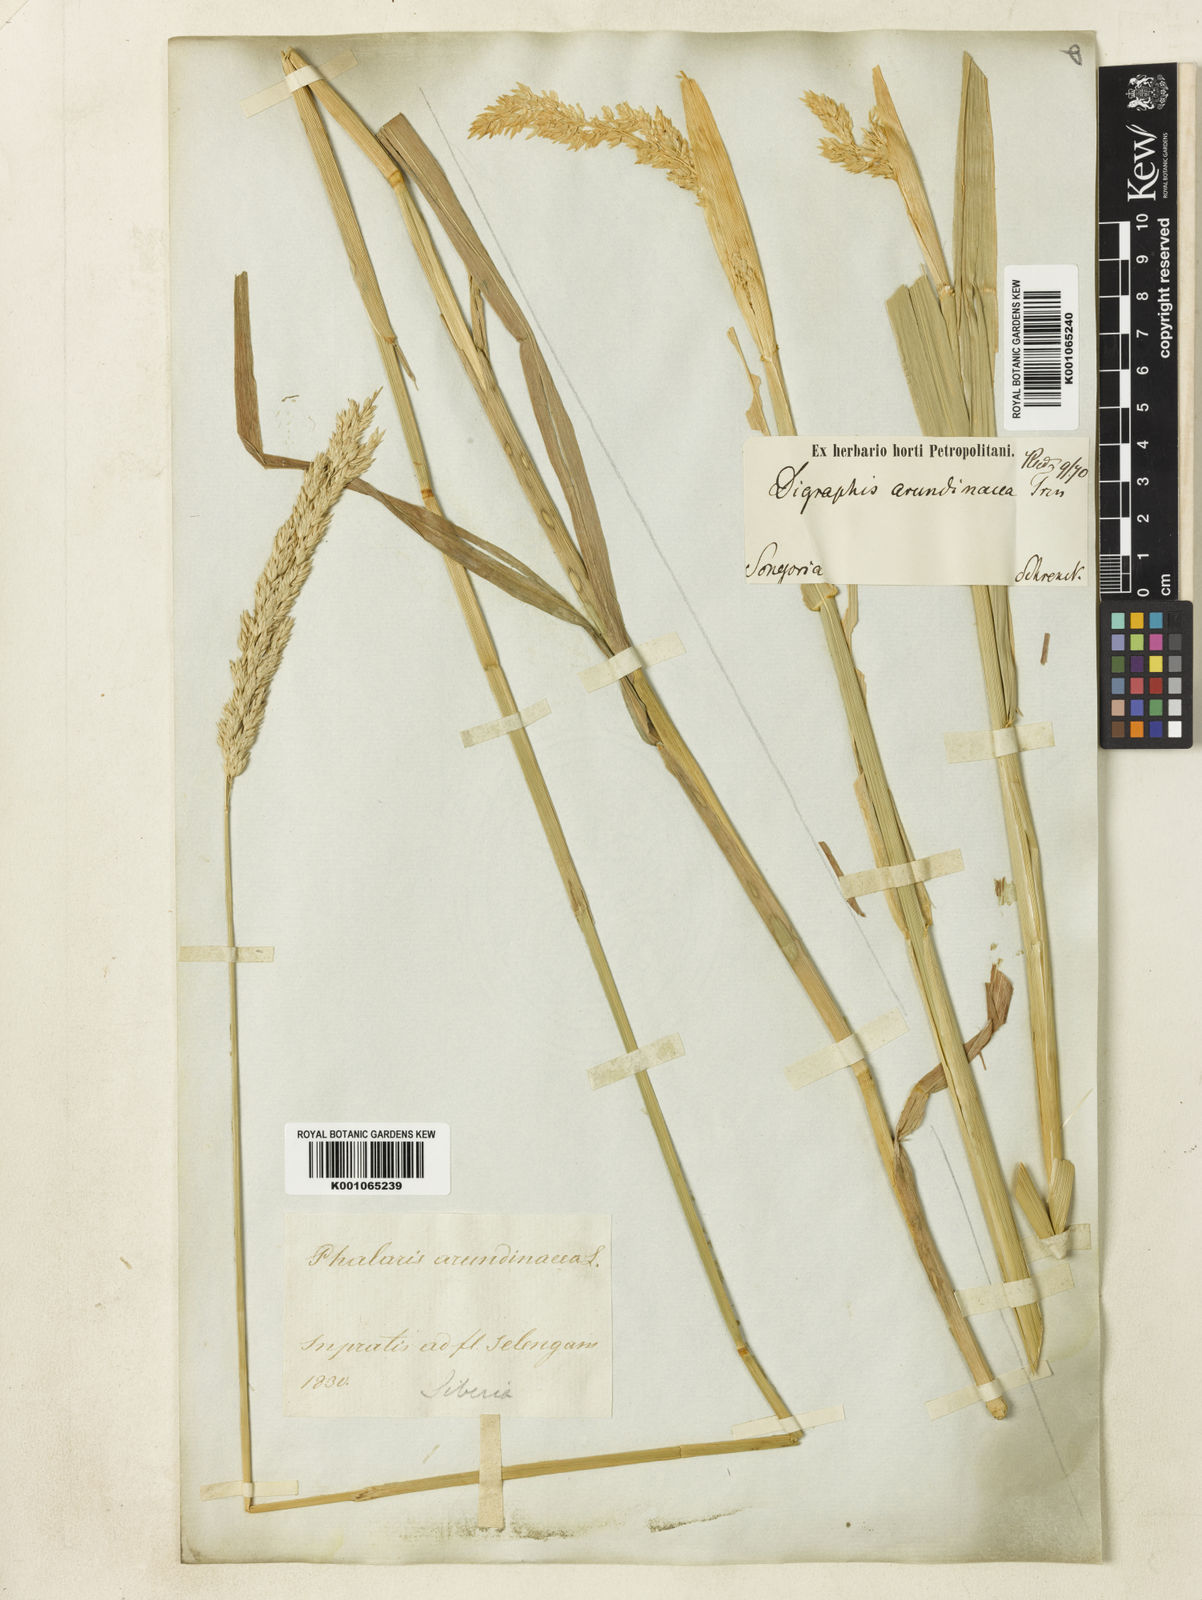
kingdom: Plantae
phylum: Tracheophyta
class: Liliopsida
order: Poales
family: Poaceae
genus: Phalaris
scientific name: Phalaris arundinacea
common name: Reed canary-grass
